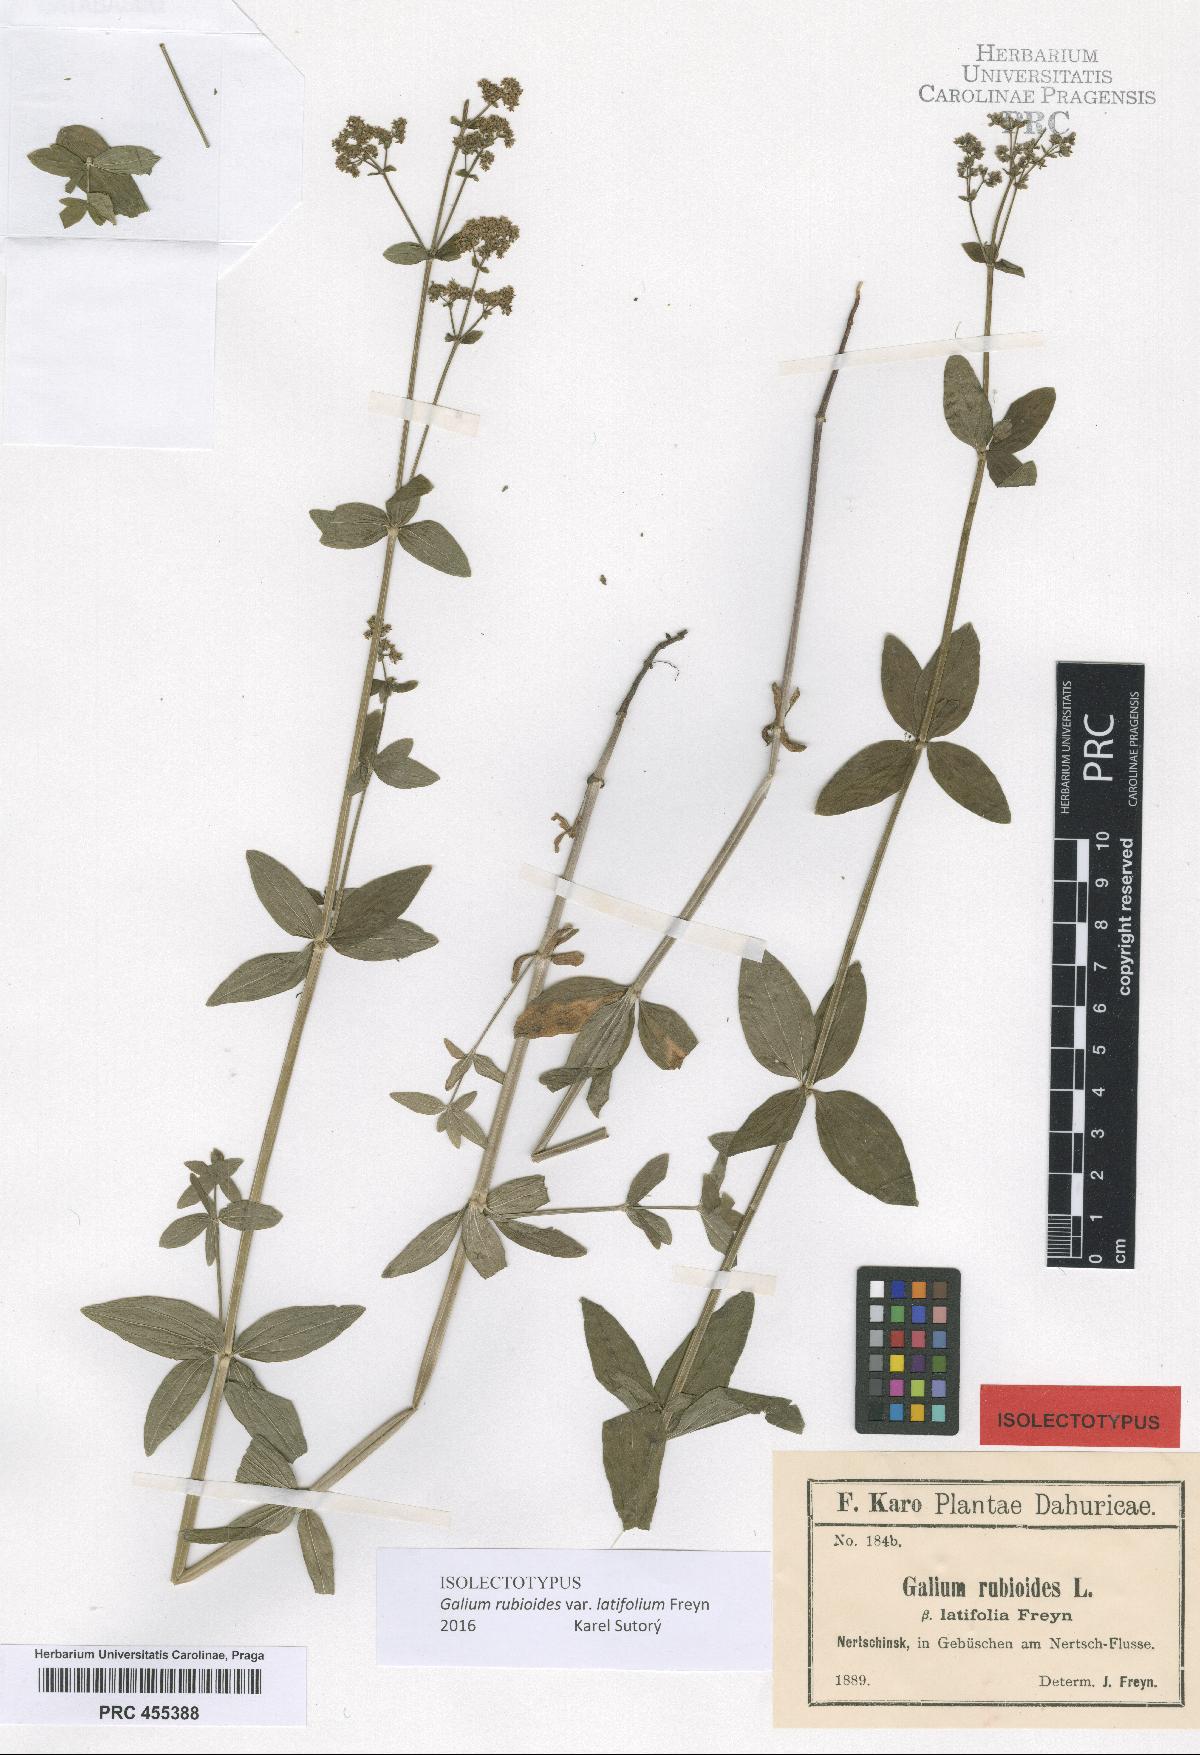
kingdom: Plantae
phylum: Tracheophyta
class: Magnoliopsida
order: Gentianales
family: Rubiaceae
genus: Galium
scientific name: Galium boreale
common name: Northern bedstraw
